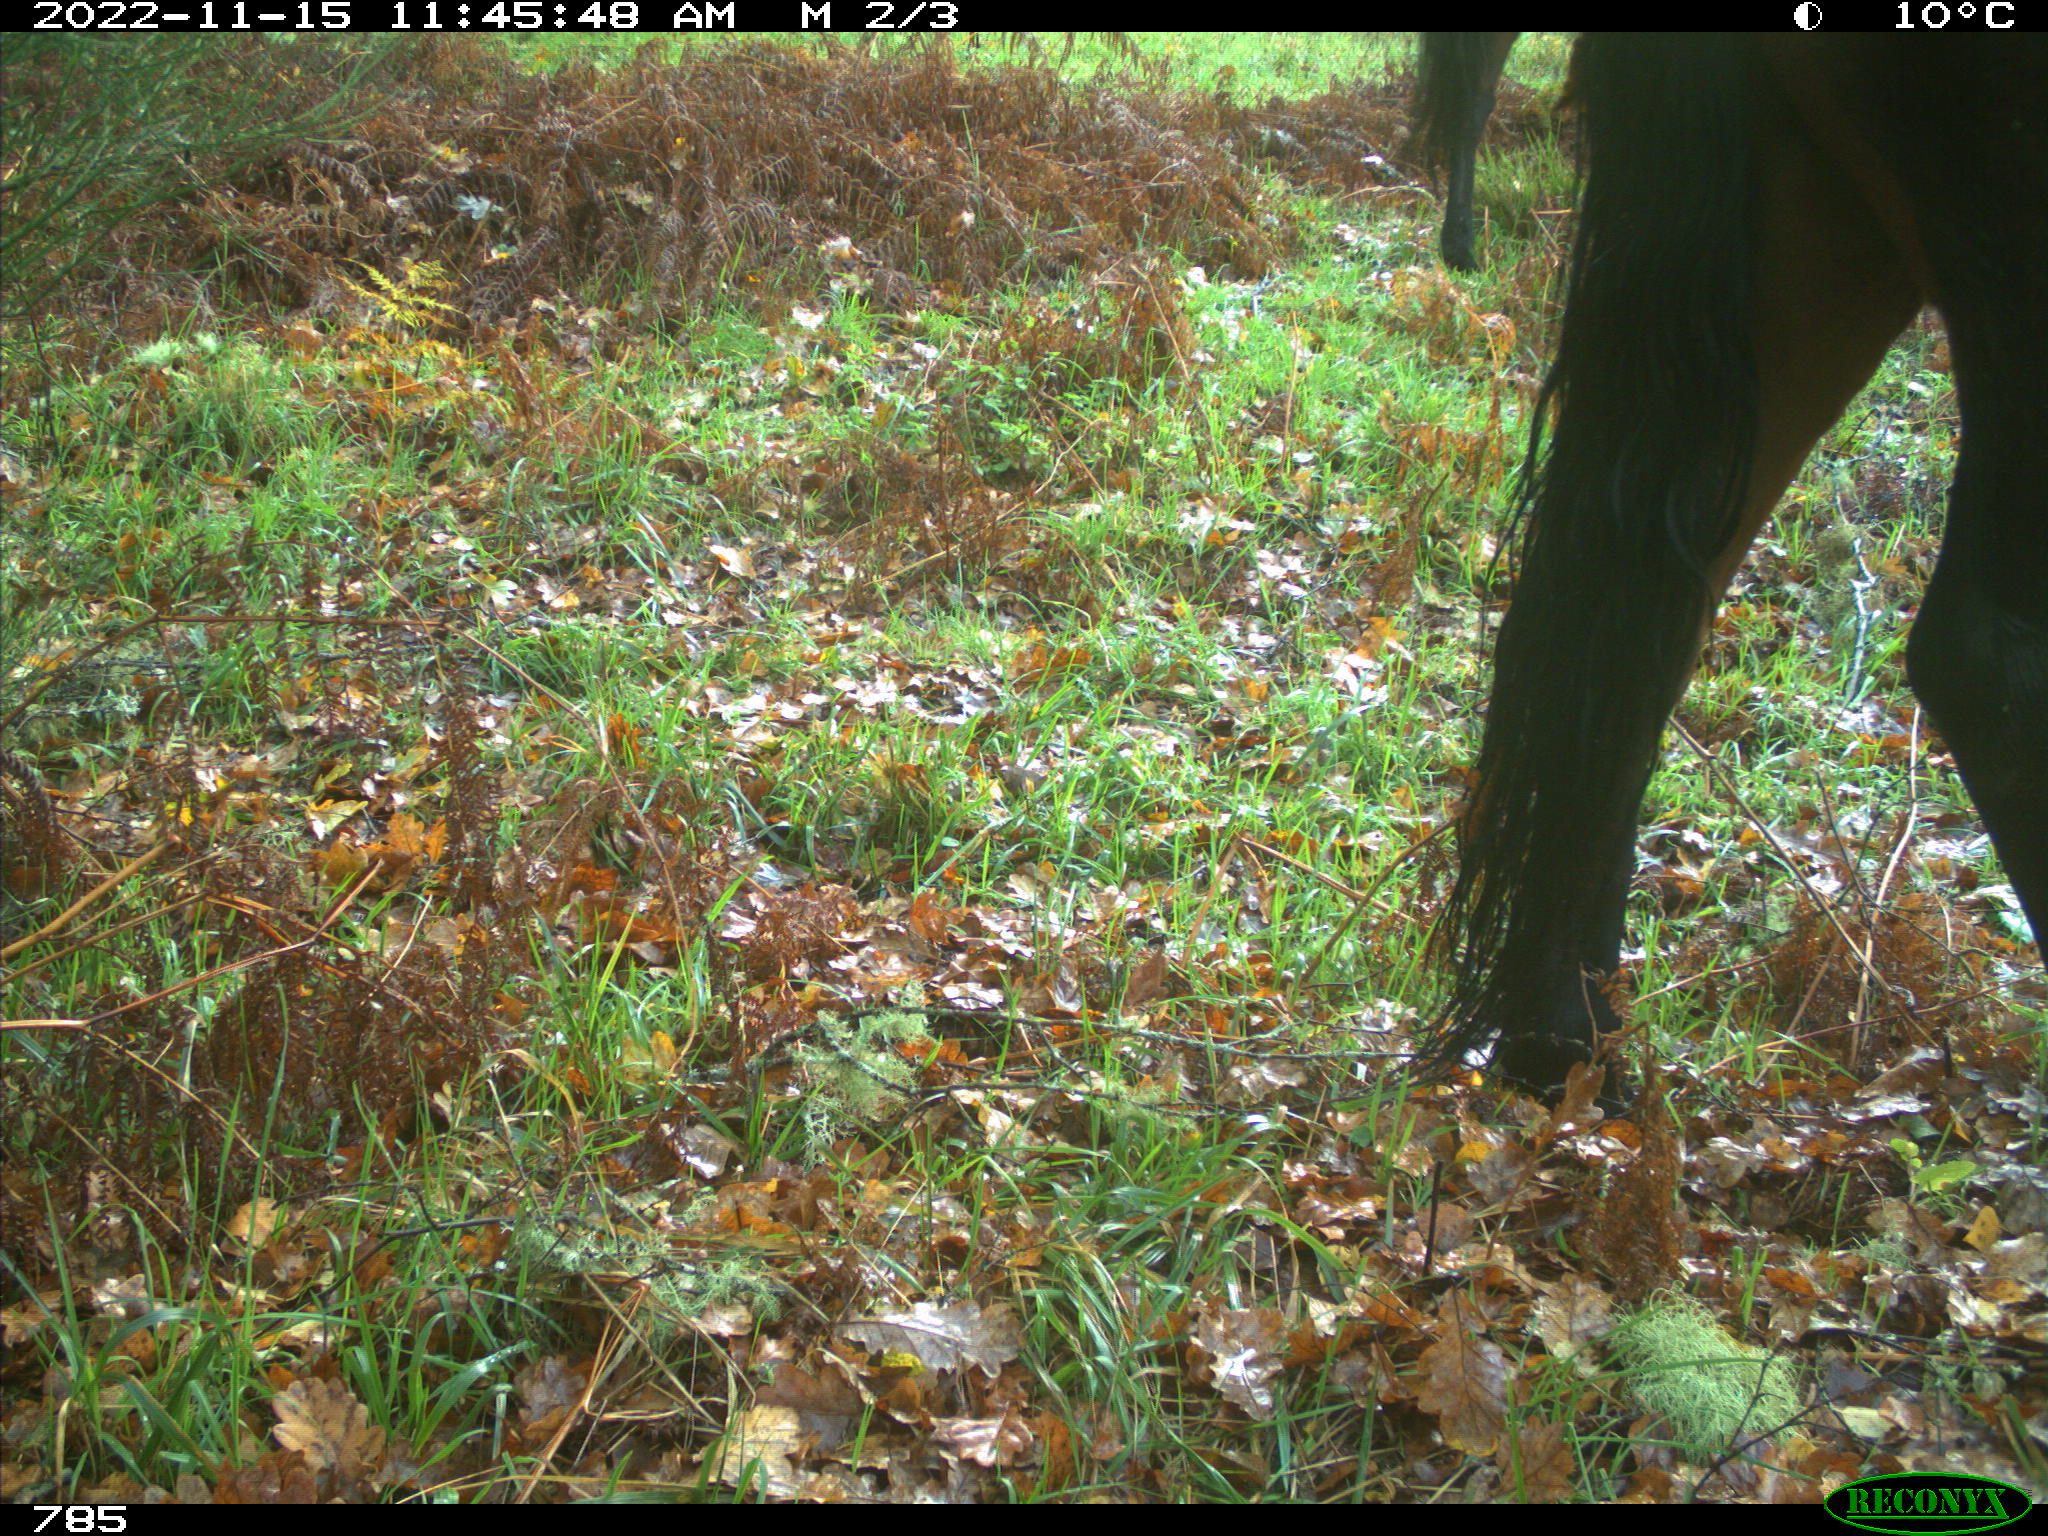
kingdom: Animalia
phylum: Chordata
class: Mammalia
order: Perissodactyla
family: Equidae
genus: Equus
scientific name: Equus caballus
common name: Horse
